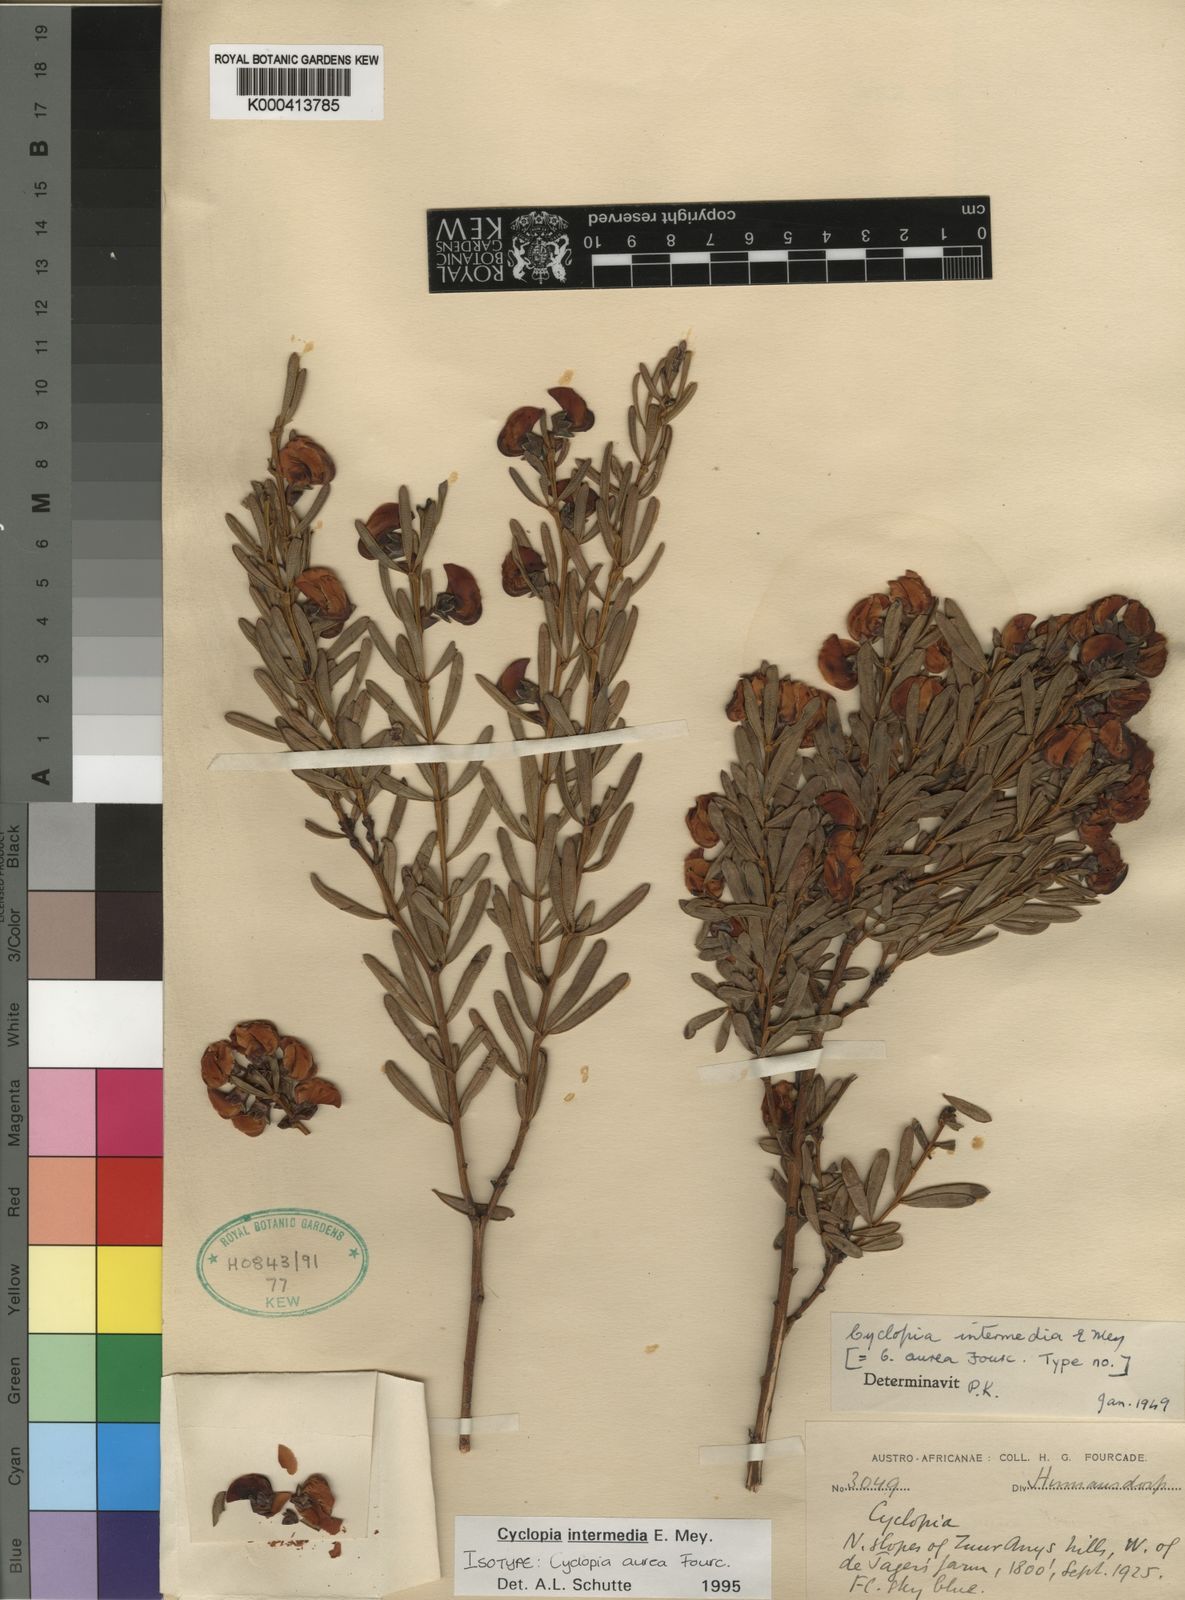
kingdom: Plantae
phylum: Tracheophyta
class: Magnoliopsida
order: Fabales
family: Fabaceae
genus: Cyclopia
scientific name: Cyclopia intermedia
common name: Mountain tea
